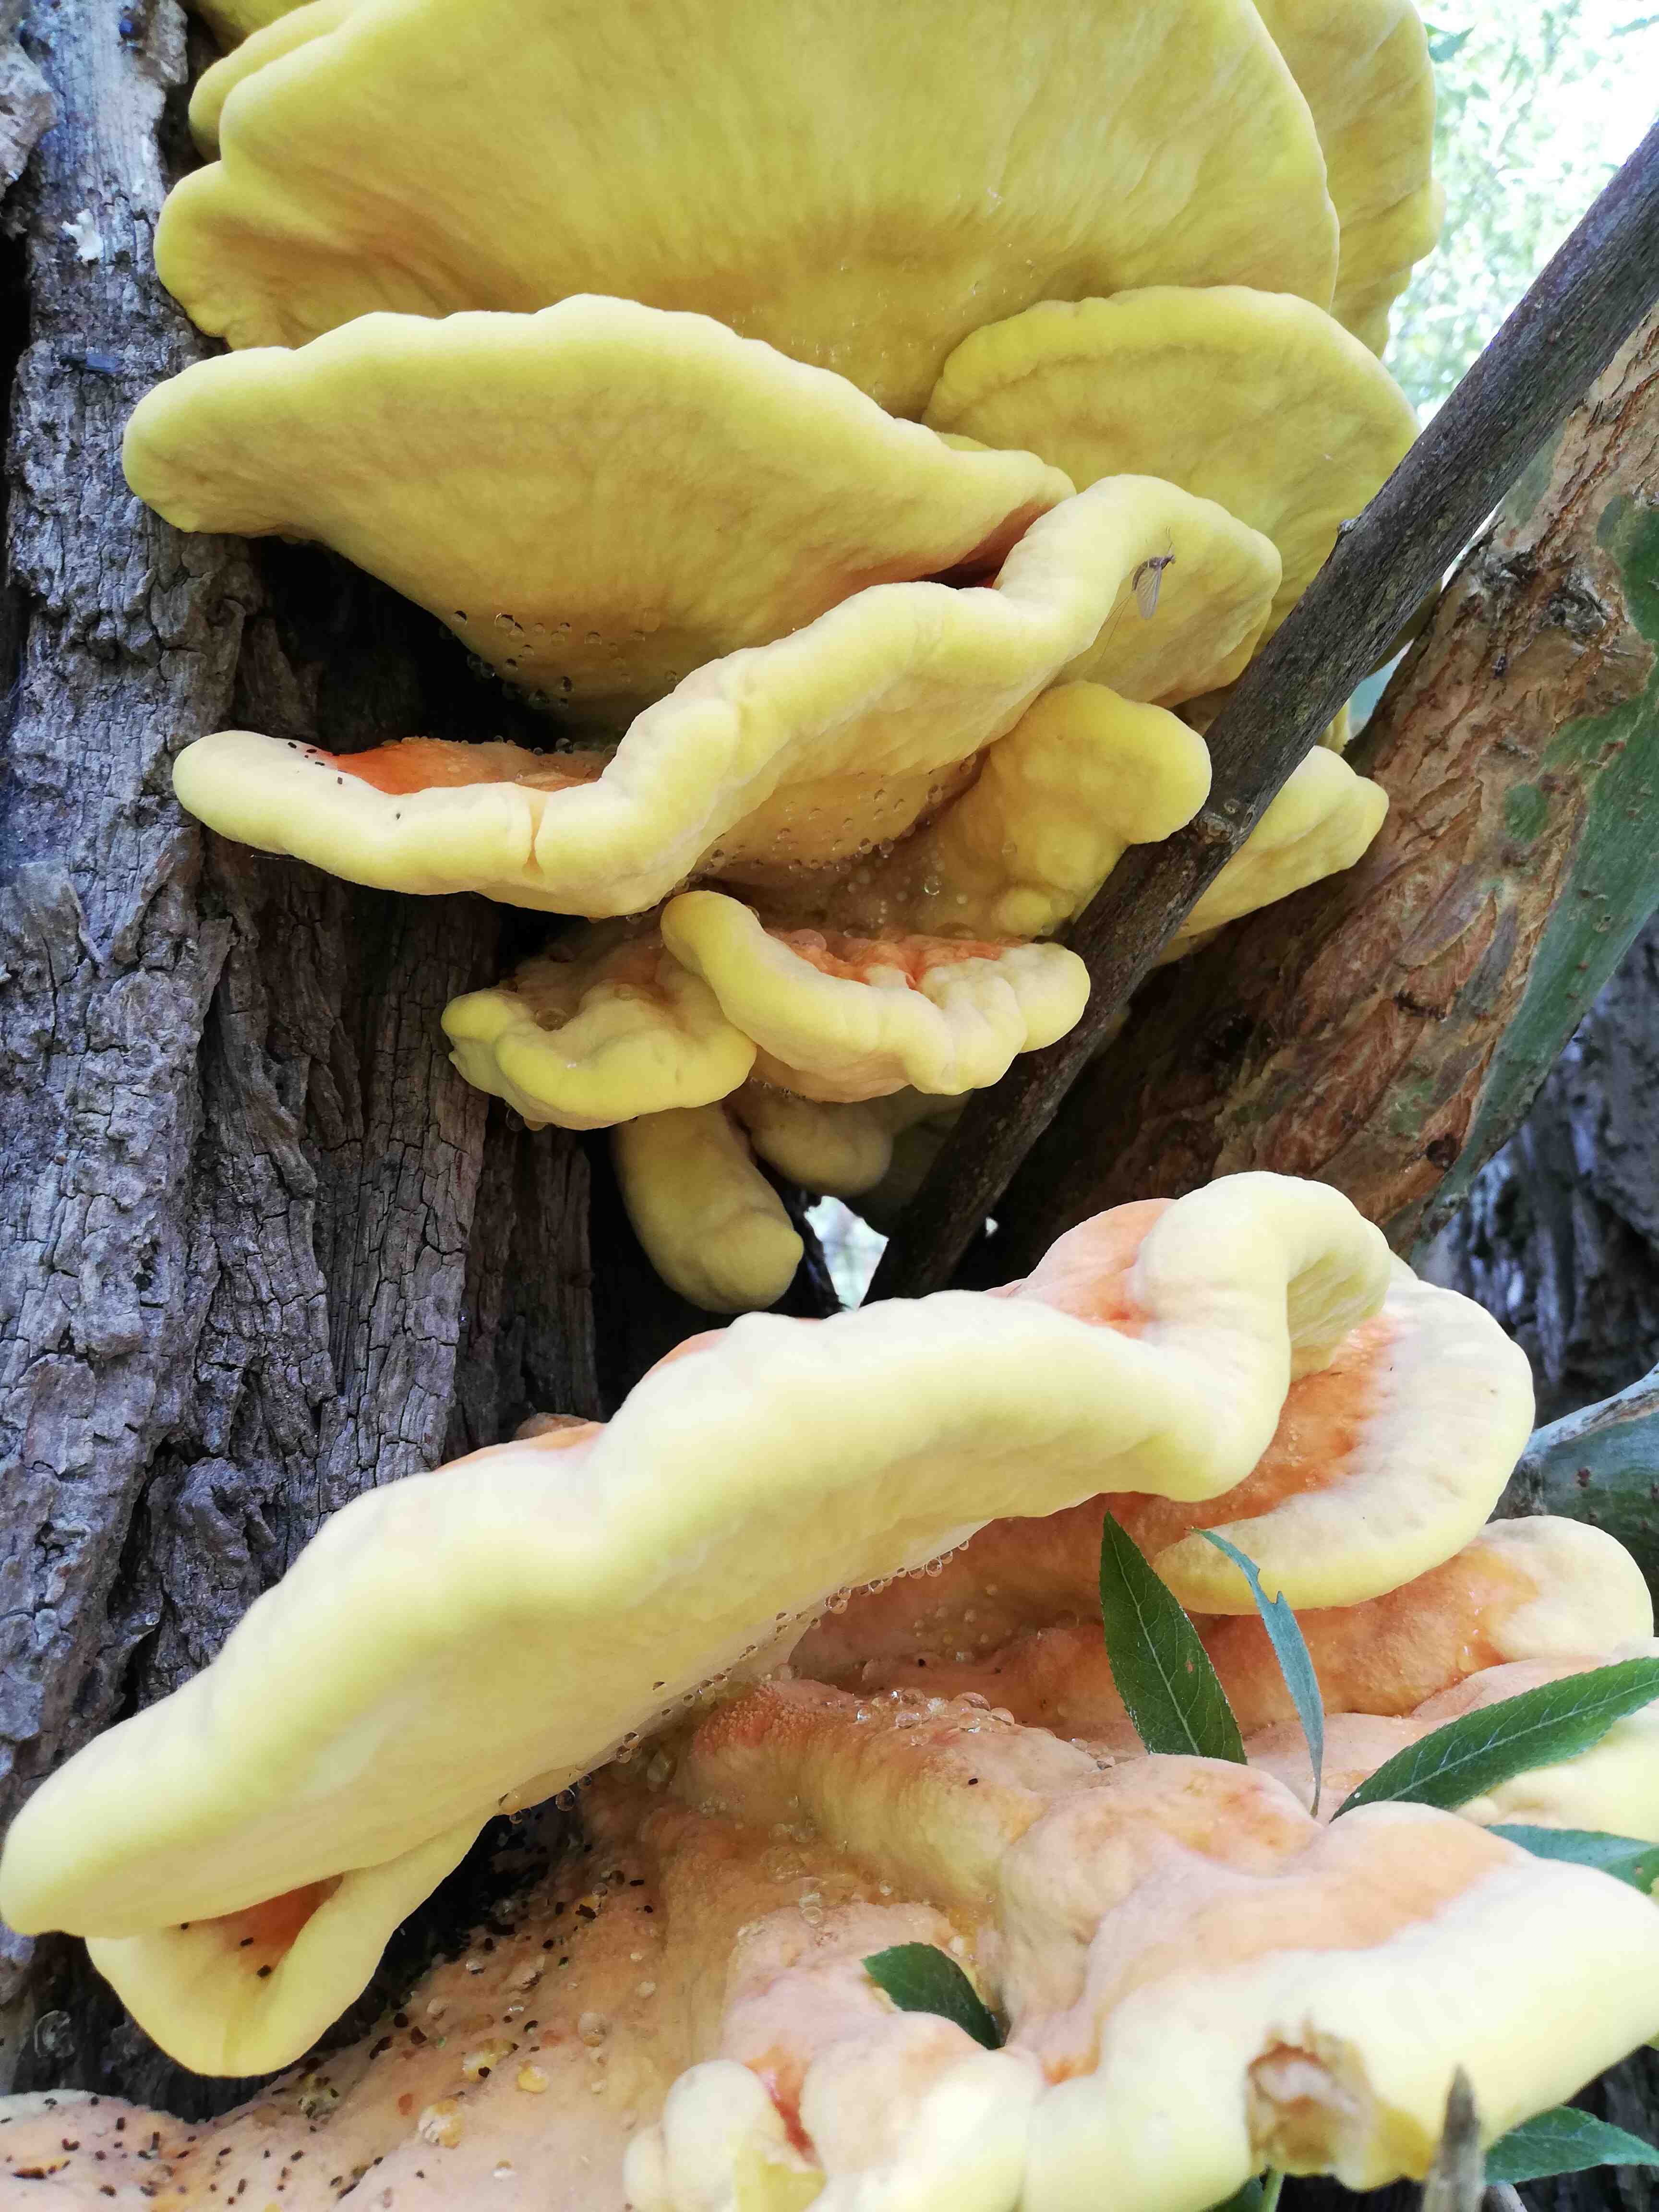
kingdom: Fungi
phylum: Basidiomycota
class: Agaricomycetes
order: Polyporales
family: Laetiporaceae
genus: Laetiporus
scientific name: Laetiporus sulphureus
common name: svovlporesvamp
